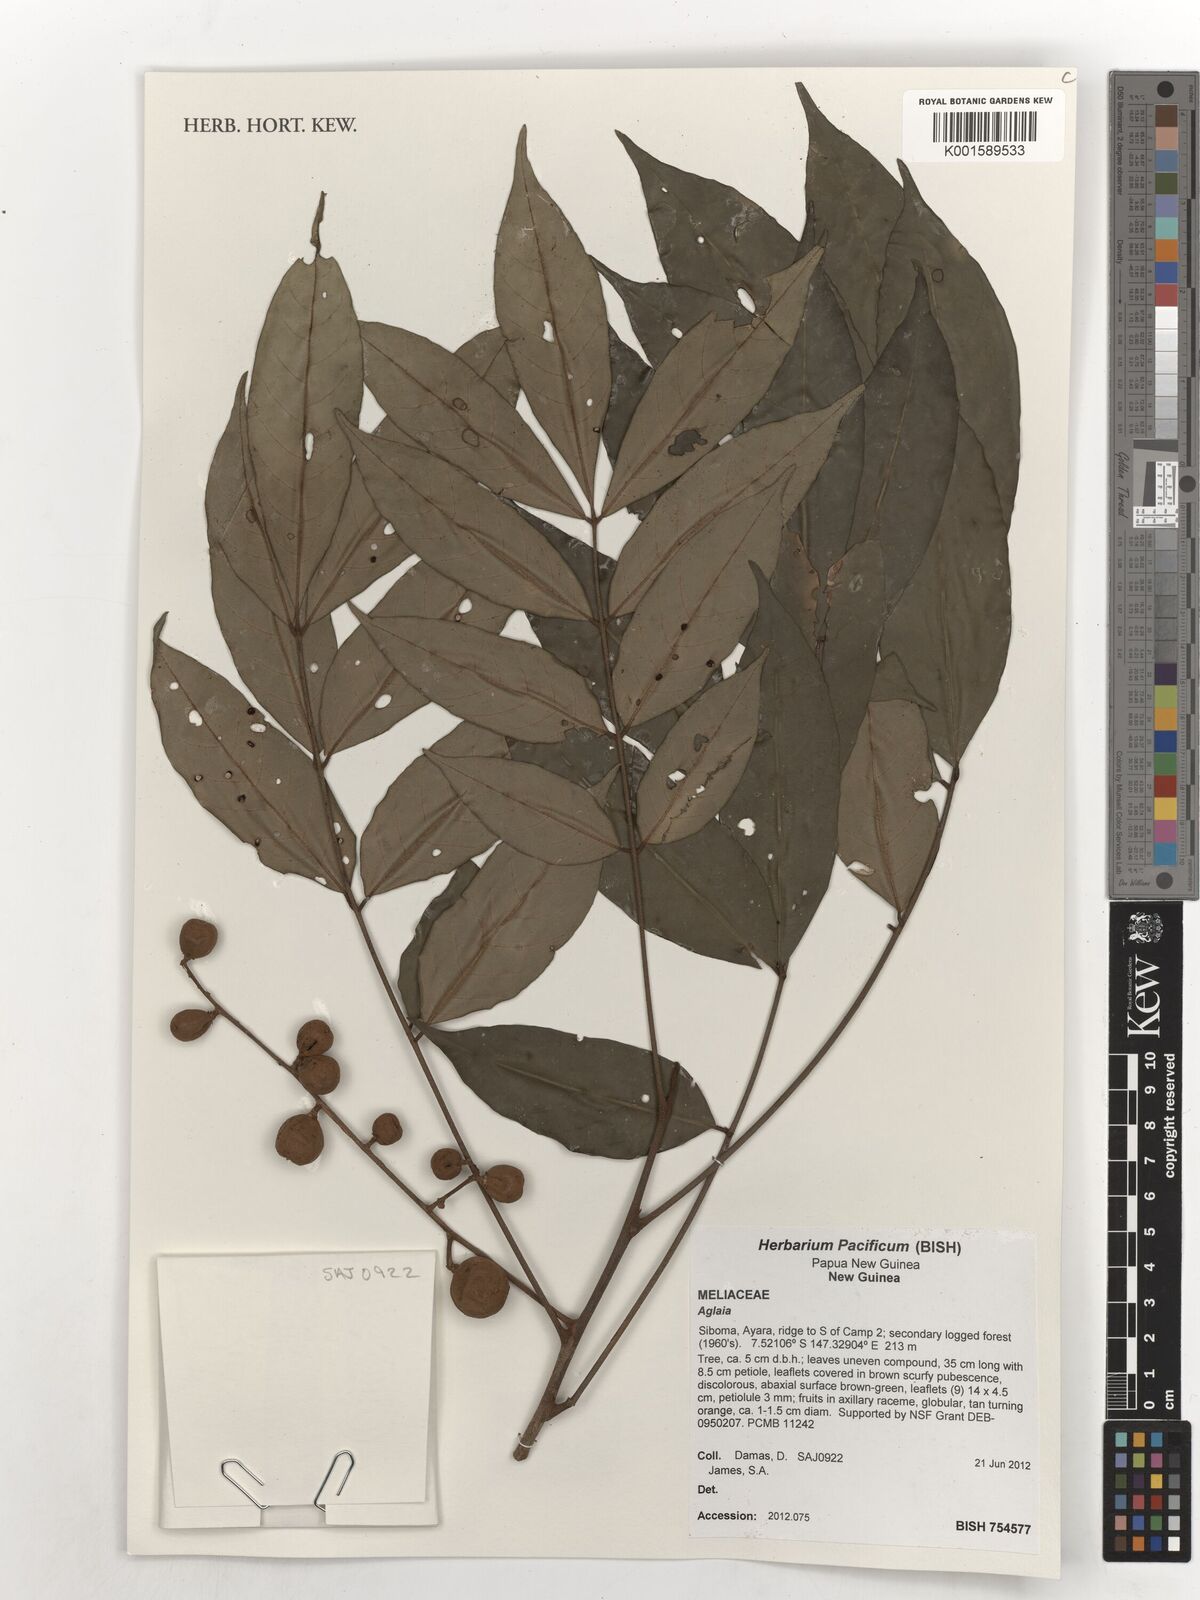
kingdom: Plantae
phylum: Tracheophyta
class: Magnoliopsida
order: Sapindales
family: Meliaceae
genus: Aglaia
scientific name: Aglaia
